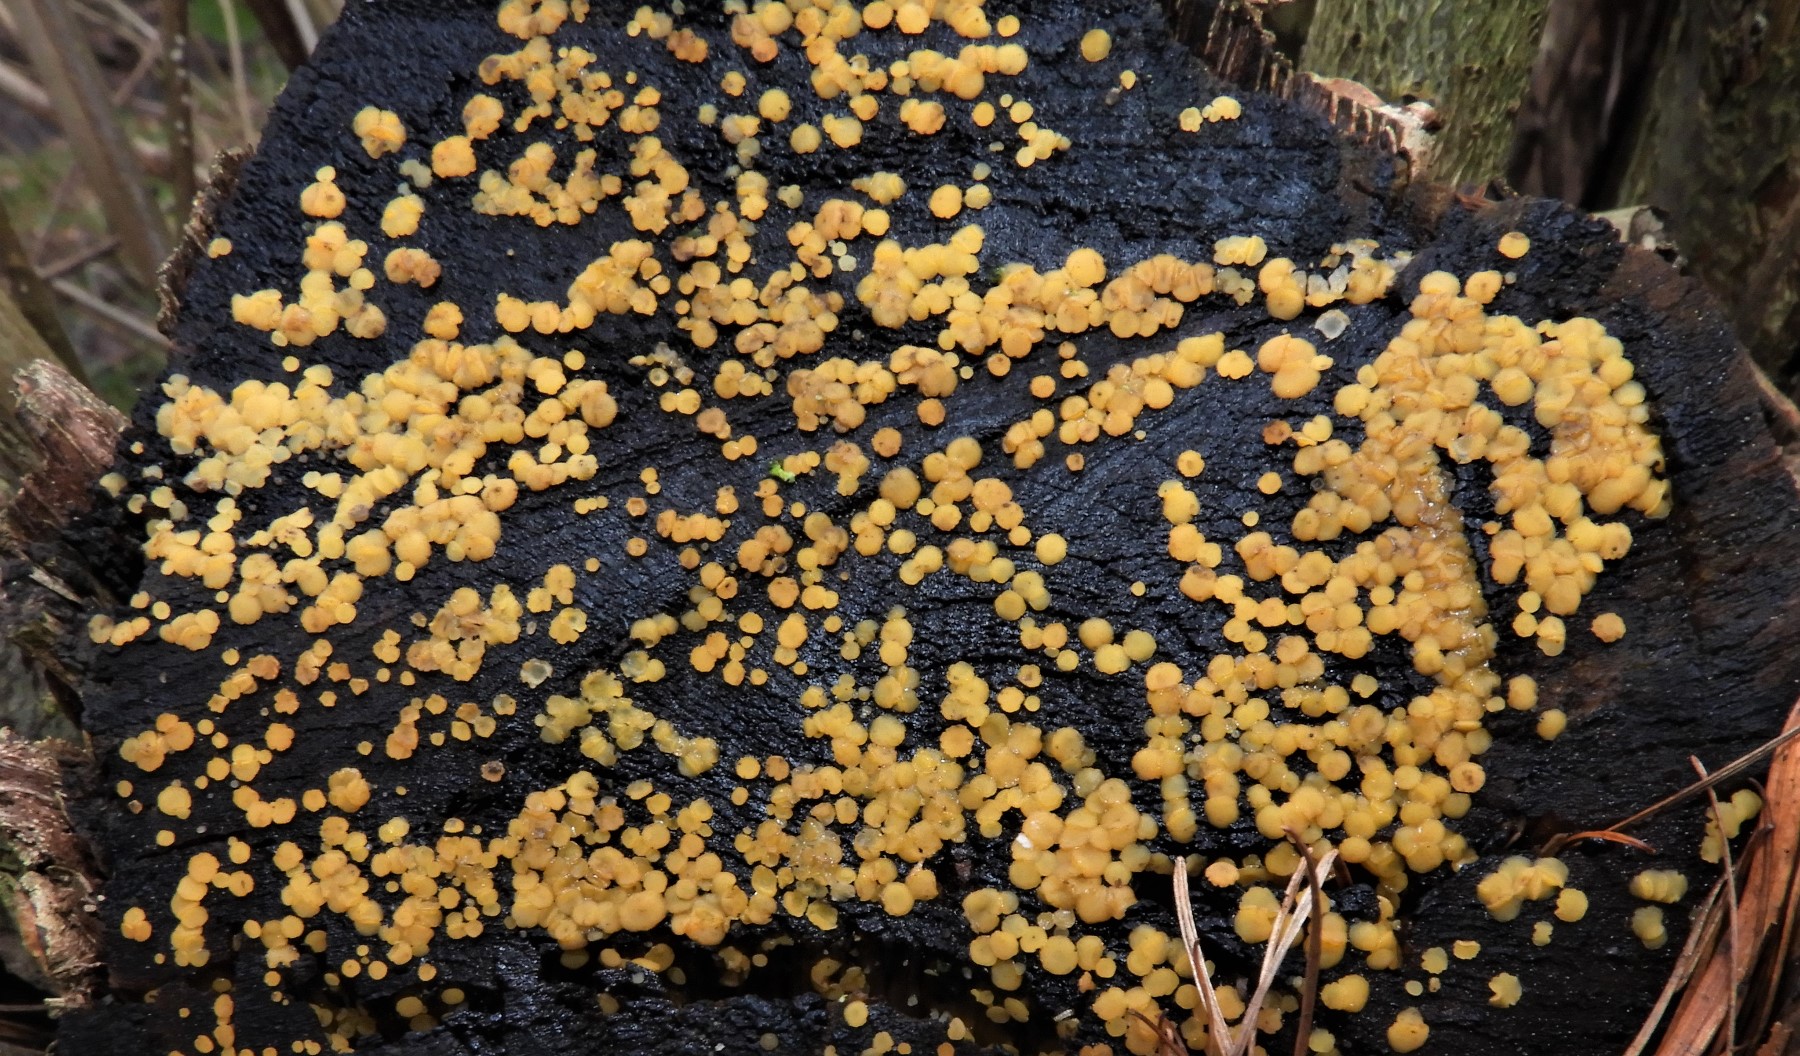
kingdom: Fungi
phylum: Ascomycota
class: Leotiomycetes
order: Helotiales
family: Helotiaceae
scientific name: Helotiaceae
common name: stilkskivefamilien
